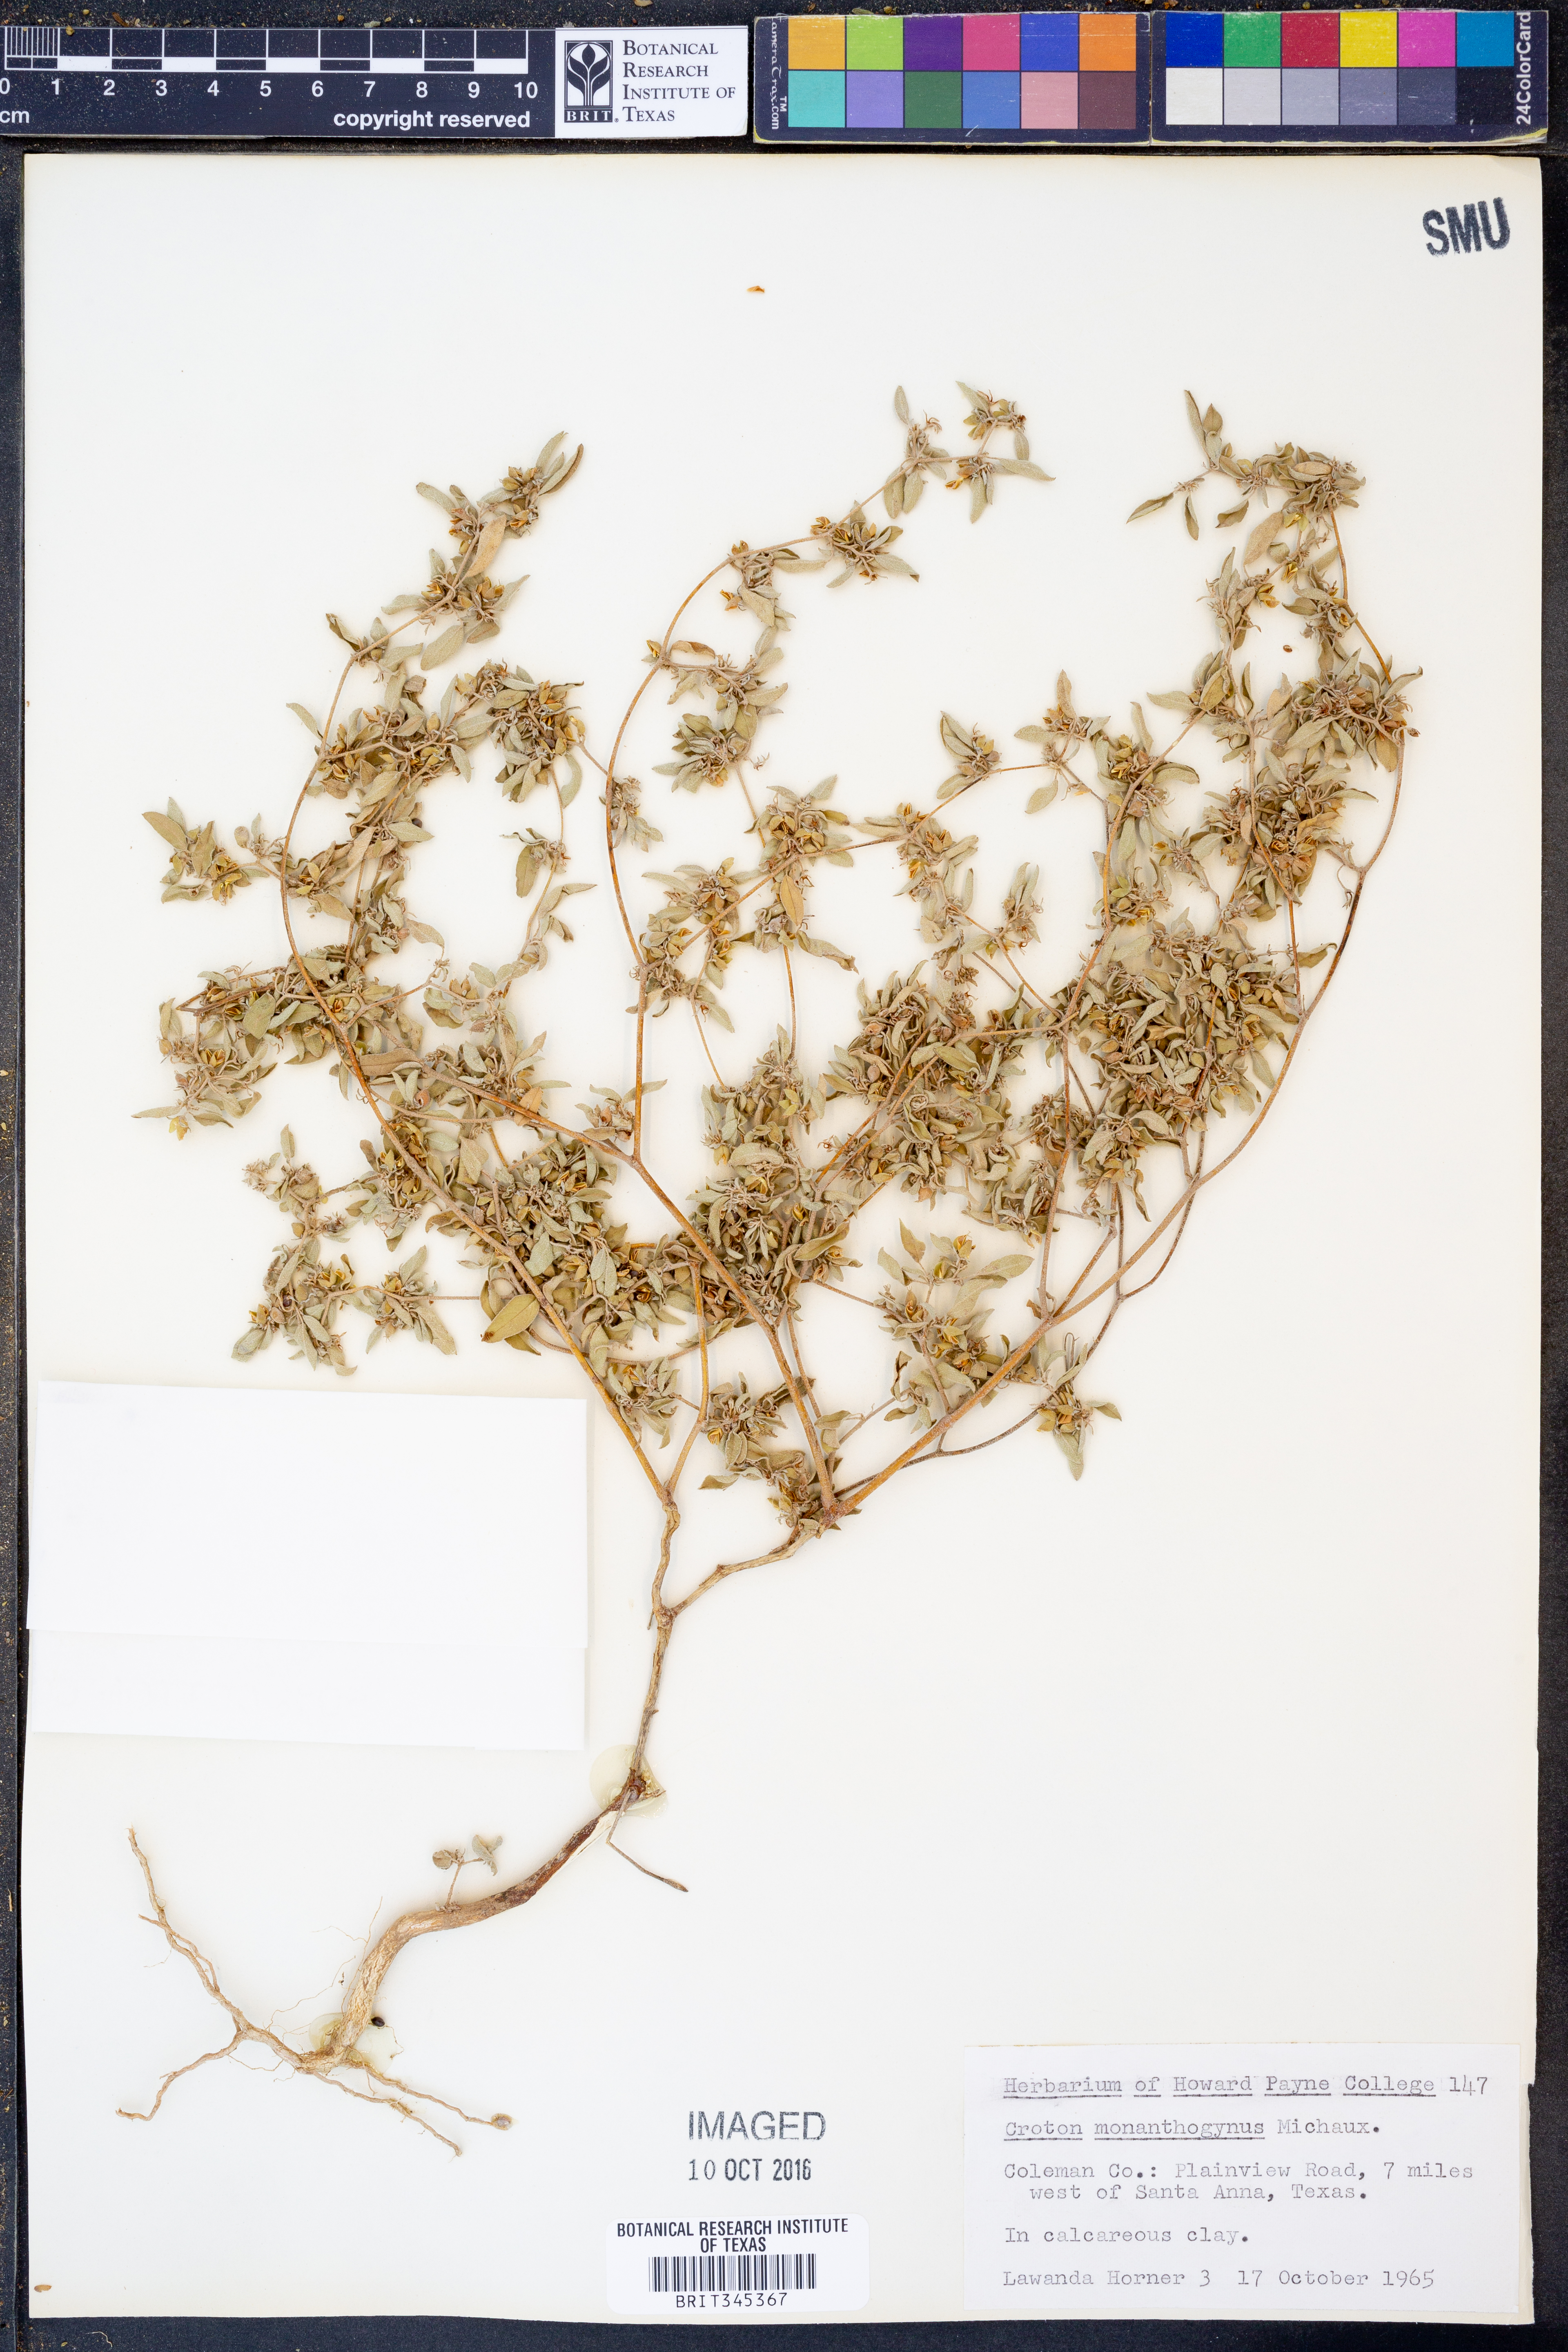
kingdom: Plantae
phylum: Tracheophyta
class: Magnoliopsida
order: Malpighiales
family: Euphorbiaceae
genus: Croton
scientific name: Croton monanthogynus
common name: One-seed croton
